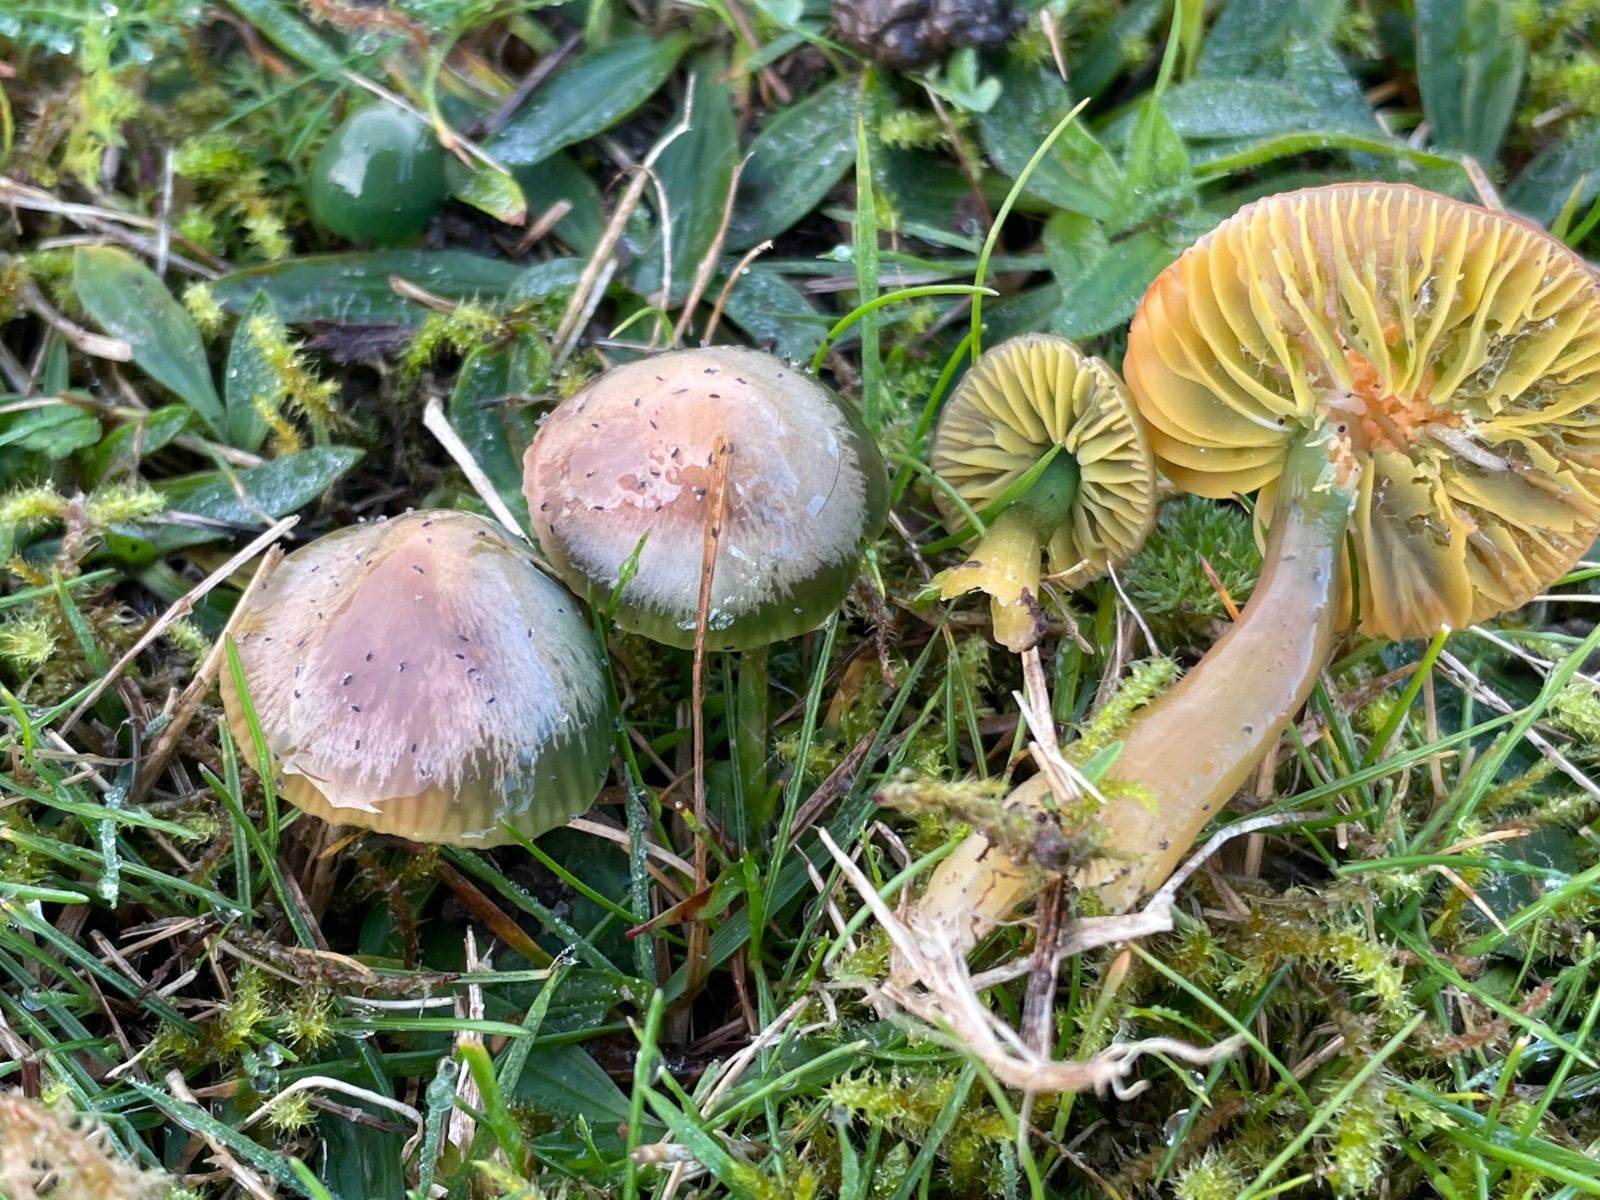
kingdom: Fungi
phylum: Basidiomycota
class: Agaricomycetes
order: Agaricales
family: Hygrophoraceae
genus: Gliophorus
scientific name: Gliophorus psittacinus
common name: papegøje-vokshat
